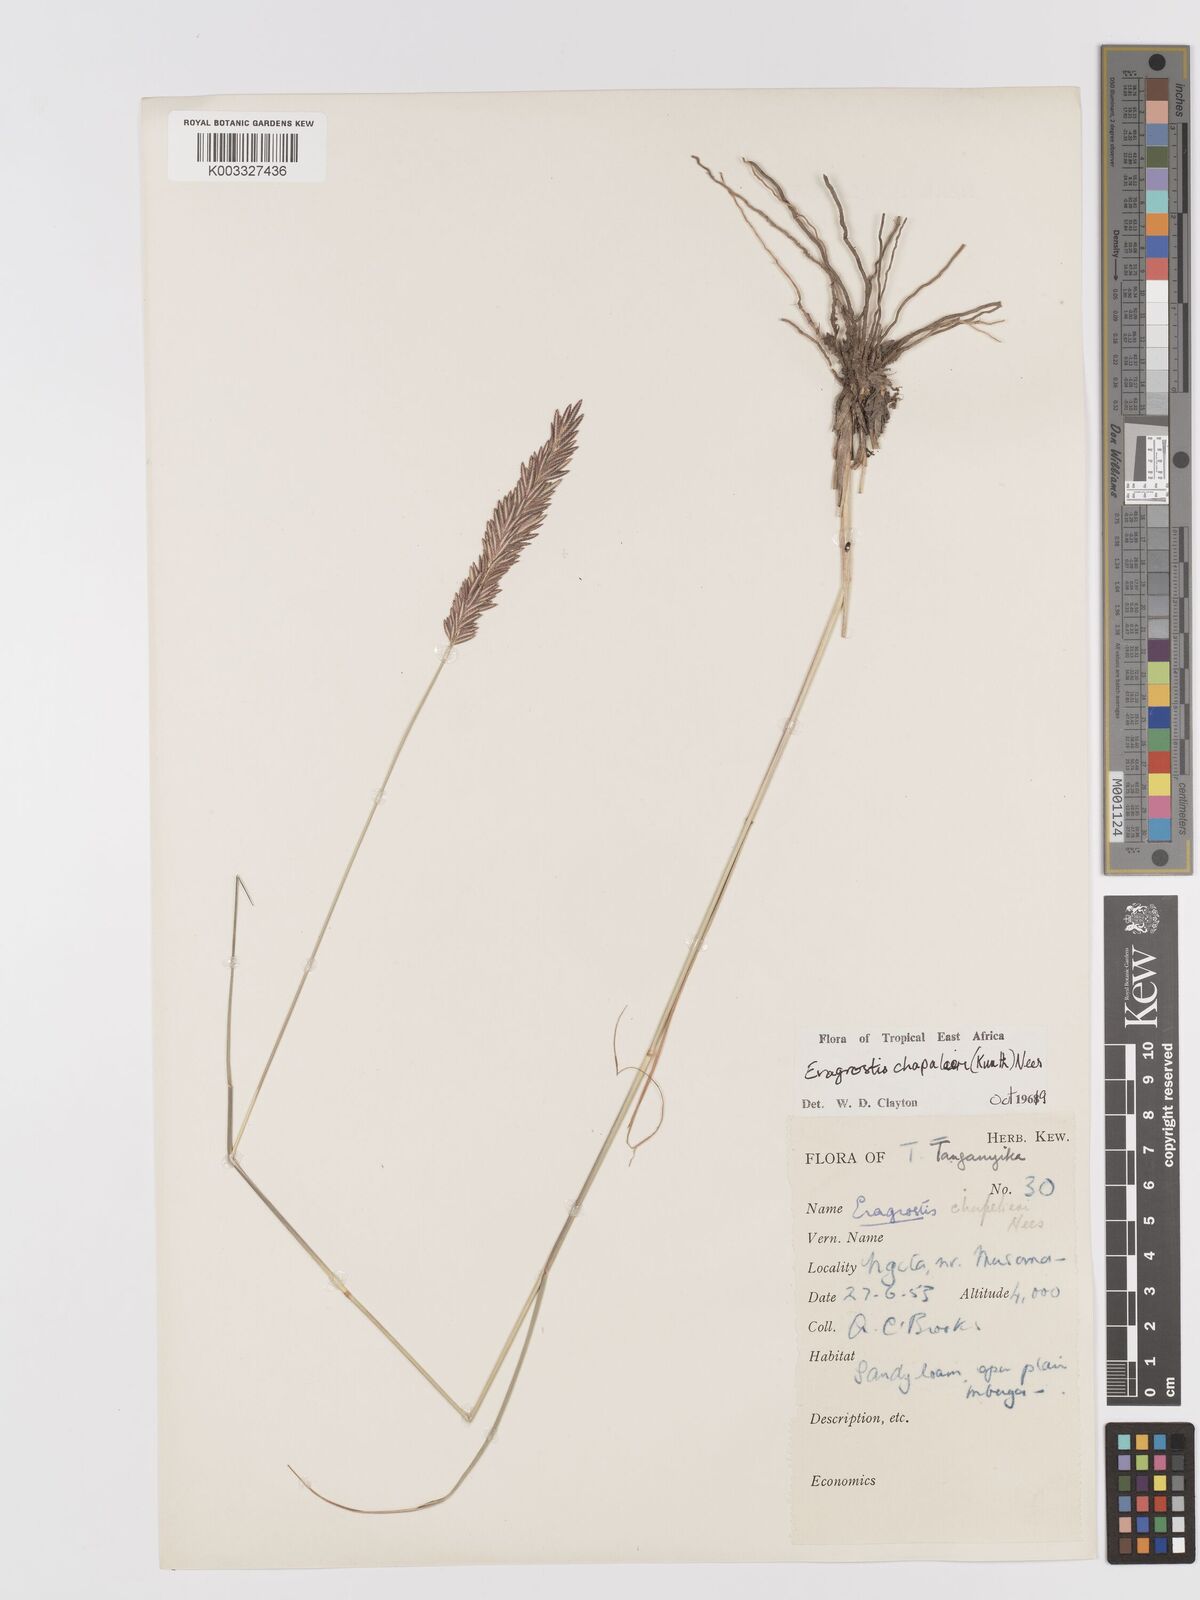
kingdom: Plantae
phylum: Tracheophyta
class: Liliopsida
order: Poales
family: Poaceae
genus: Eragrostis
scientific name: Eragrostis chapelieri
